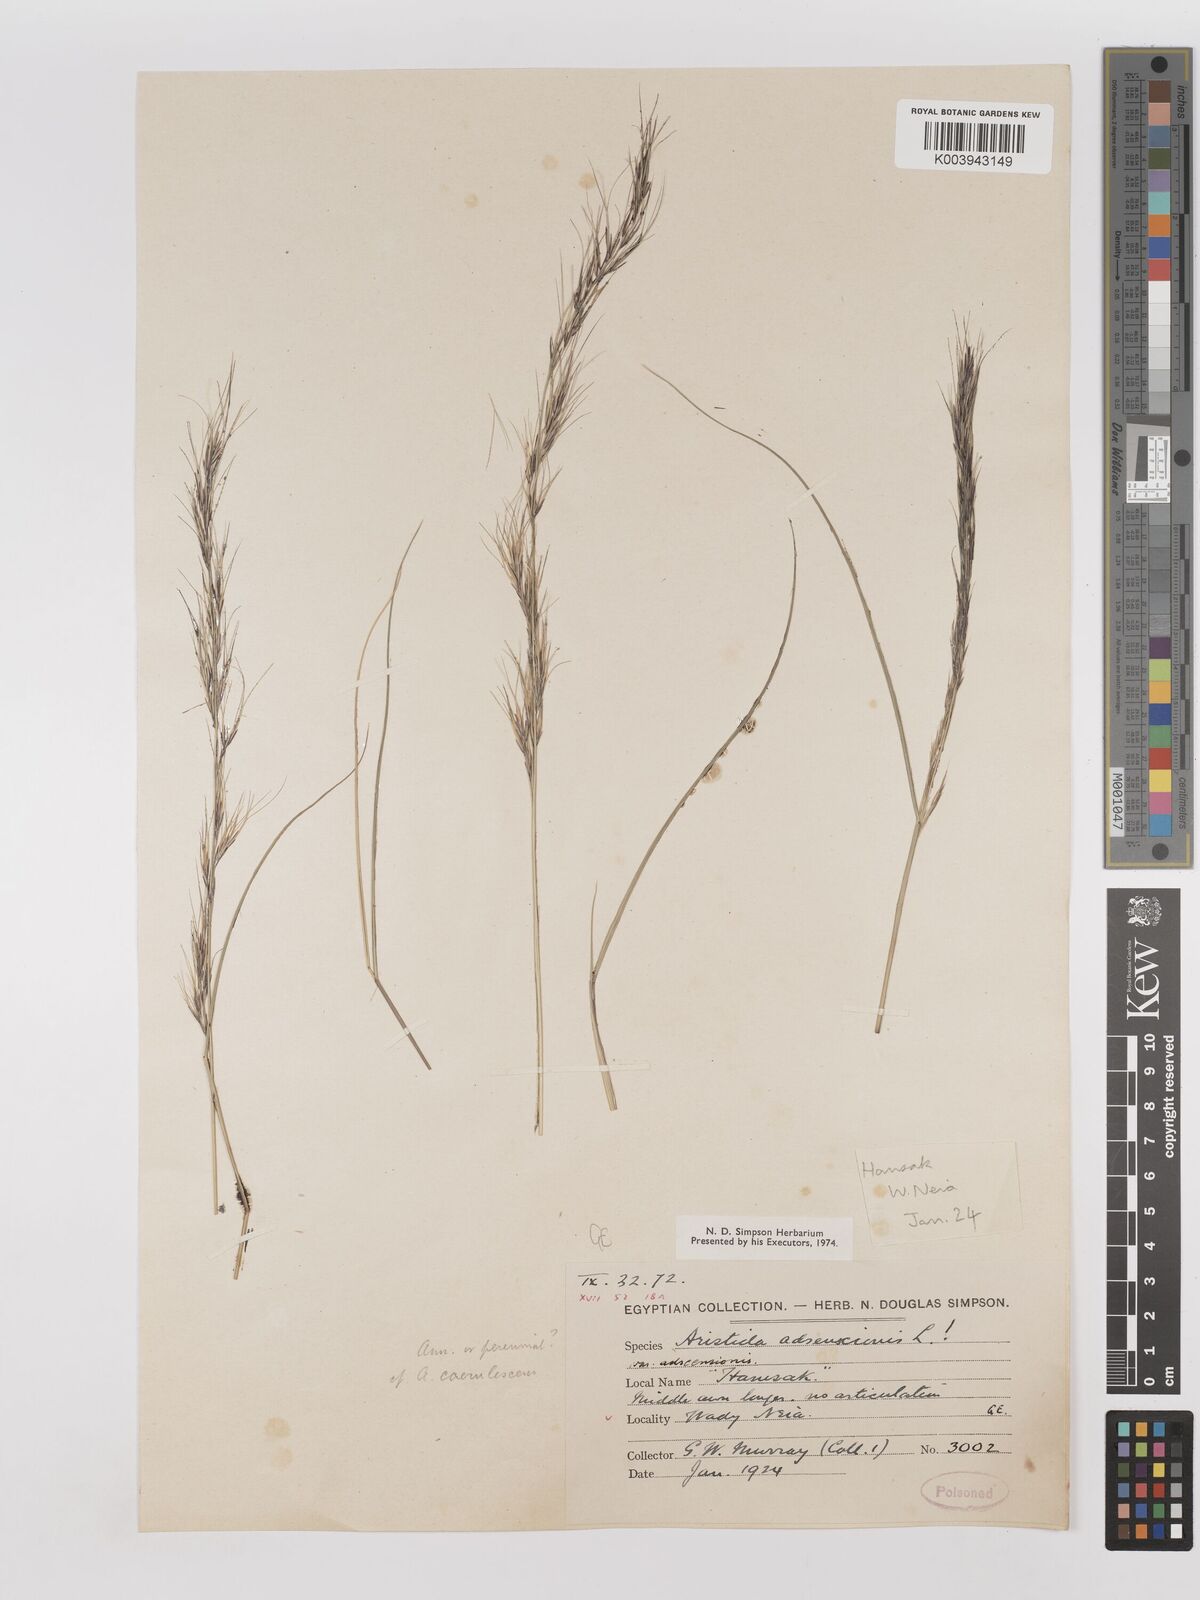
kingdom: Plantae
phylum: Tracheophyta
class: Liliopsida
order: Poales
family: Poaceae
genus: Aristida
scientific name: Aristida adscensionis
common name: Sixweeks threeawn
